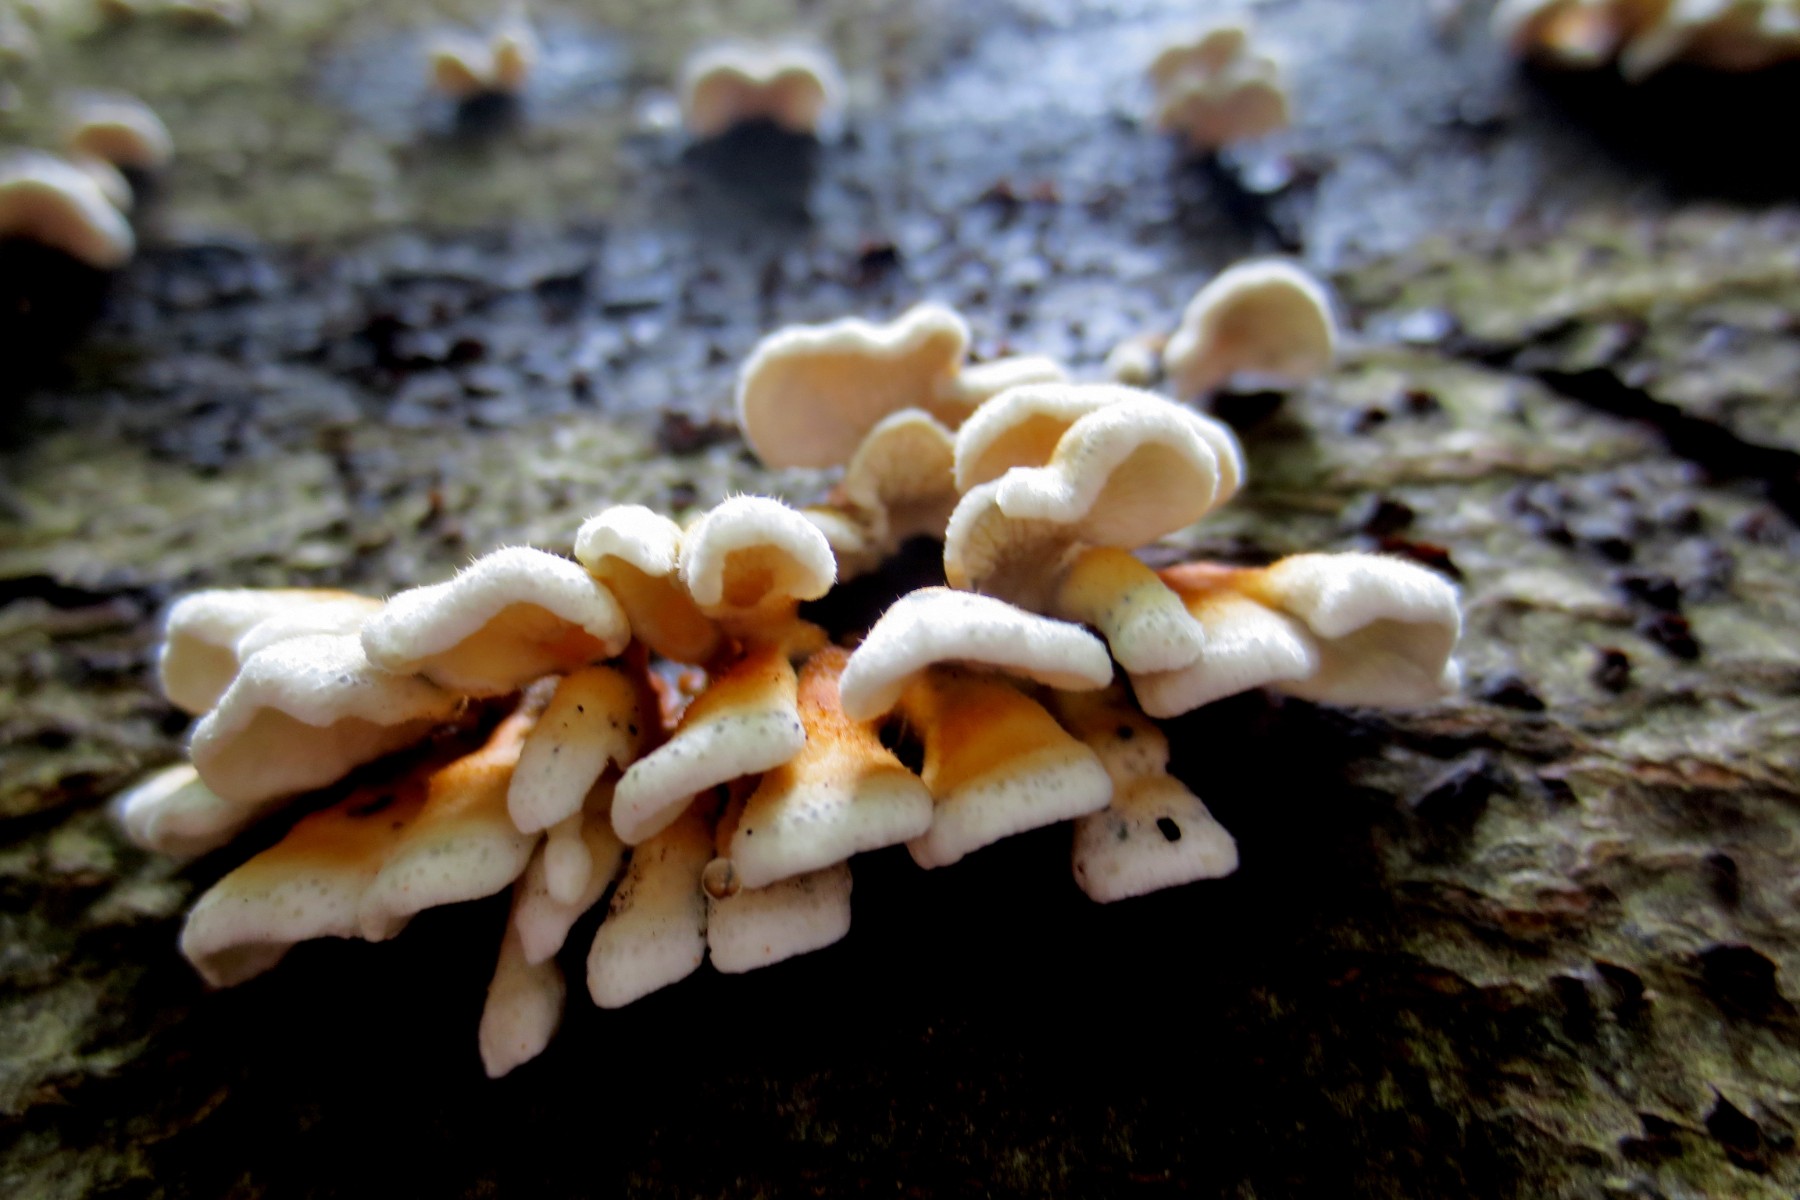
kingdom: Fungi
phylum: Basidiomycota
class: Agaricomycetes
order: Amylocorticiales
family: Amylocorticiaceae
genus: Plicaturopsis
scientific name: Plicaturopsis crispa
